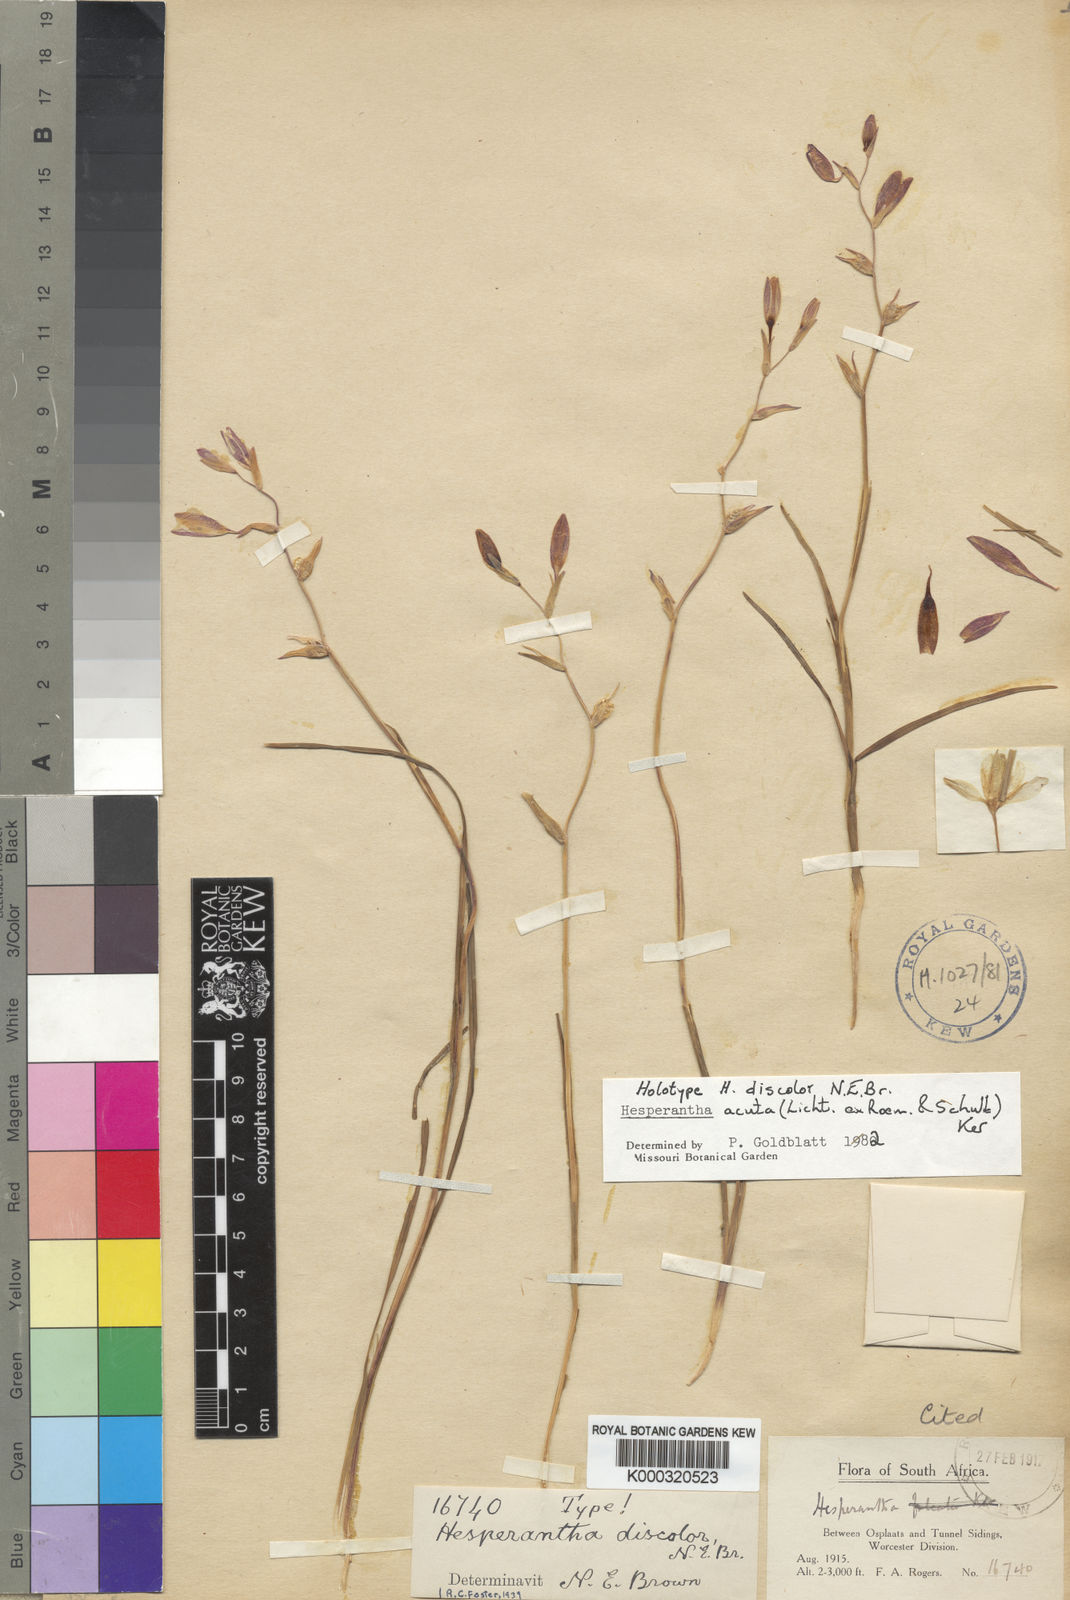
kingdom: Plantae
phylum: Tracheophyta
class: Liliopsida
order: Asparagales
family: Iridaceae
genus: Hesperantha
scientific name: Hesperantha acuta
